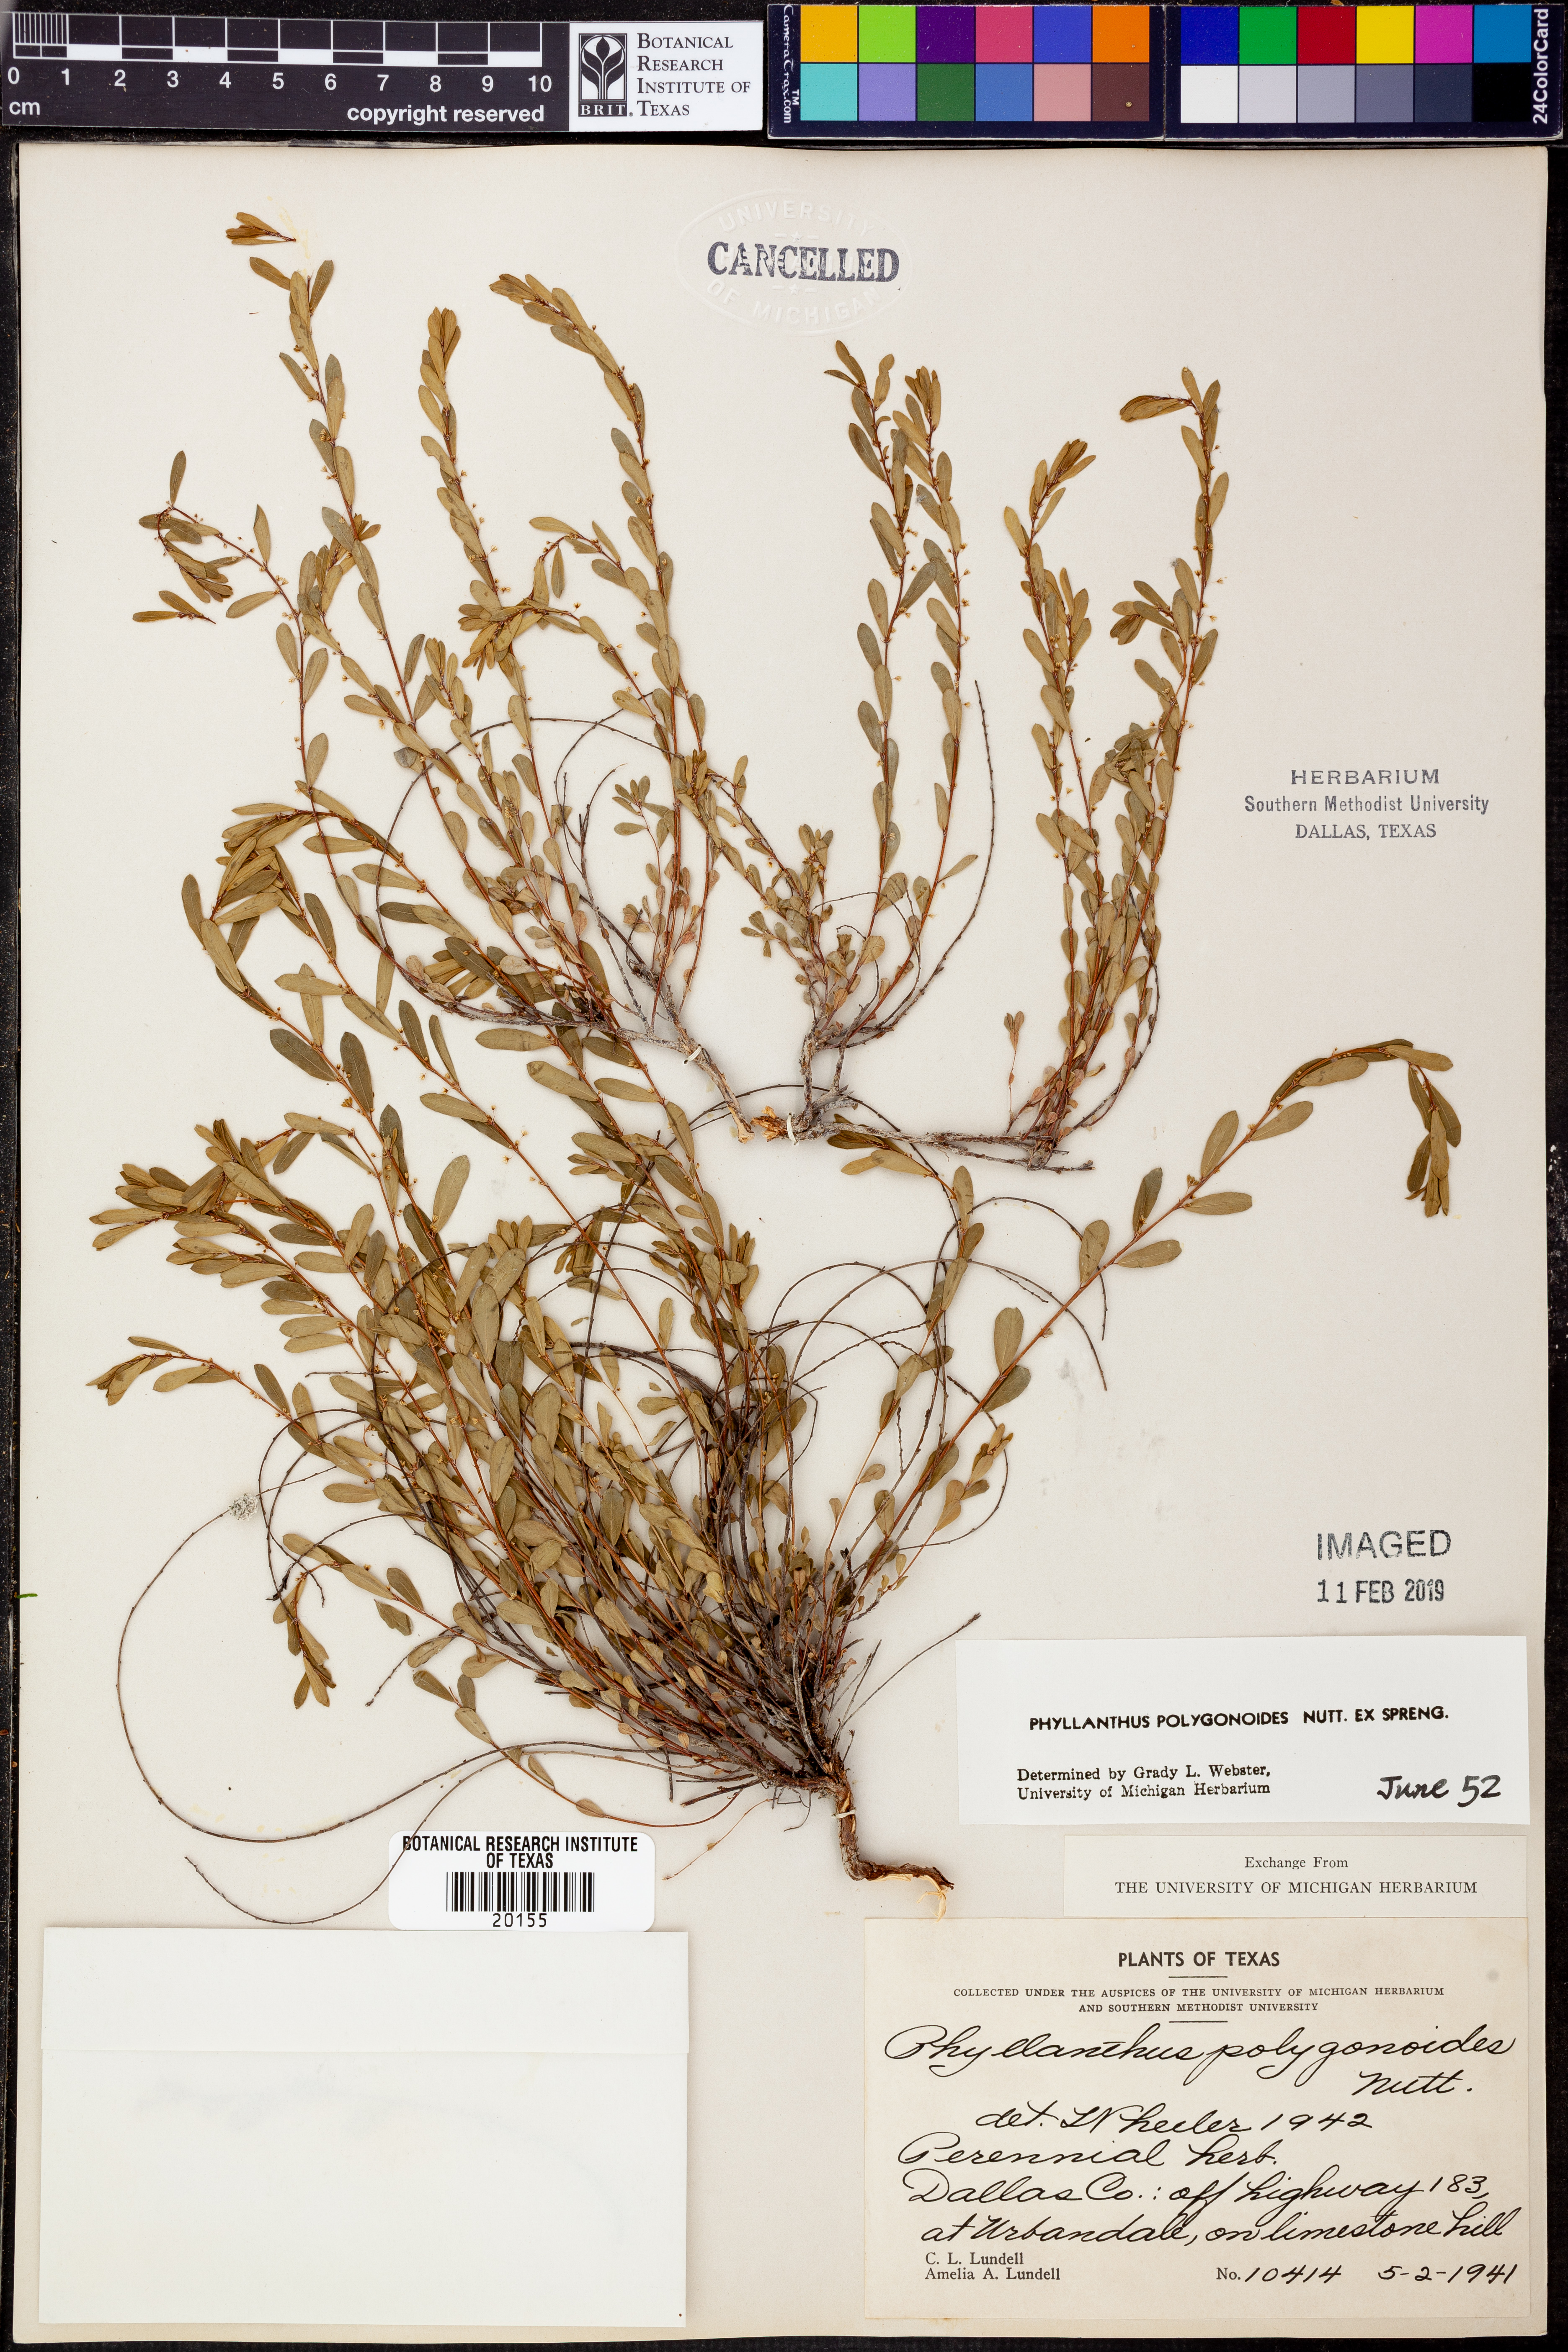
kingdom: Plantae
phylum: Tracheophyta
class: Magnoliopsida
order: Malpighiales
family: Phyllanthaceae
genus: Phyllanthus
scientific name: Phyllanthus polygonoides
